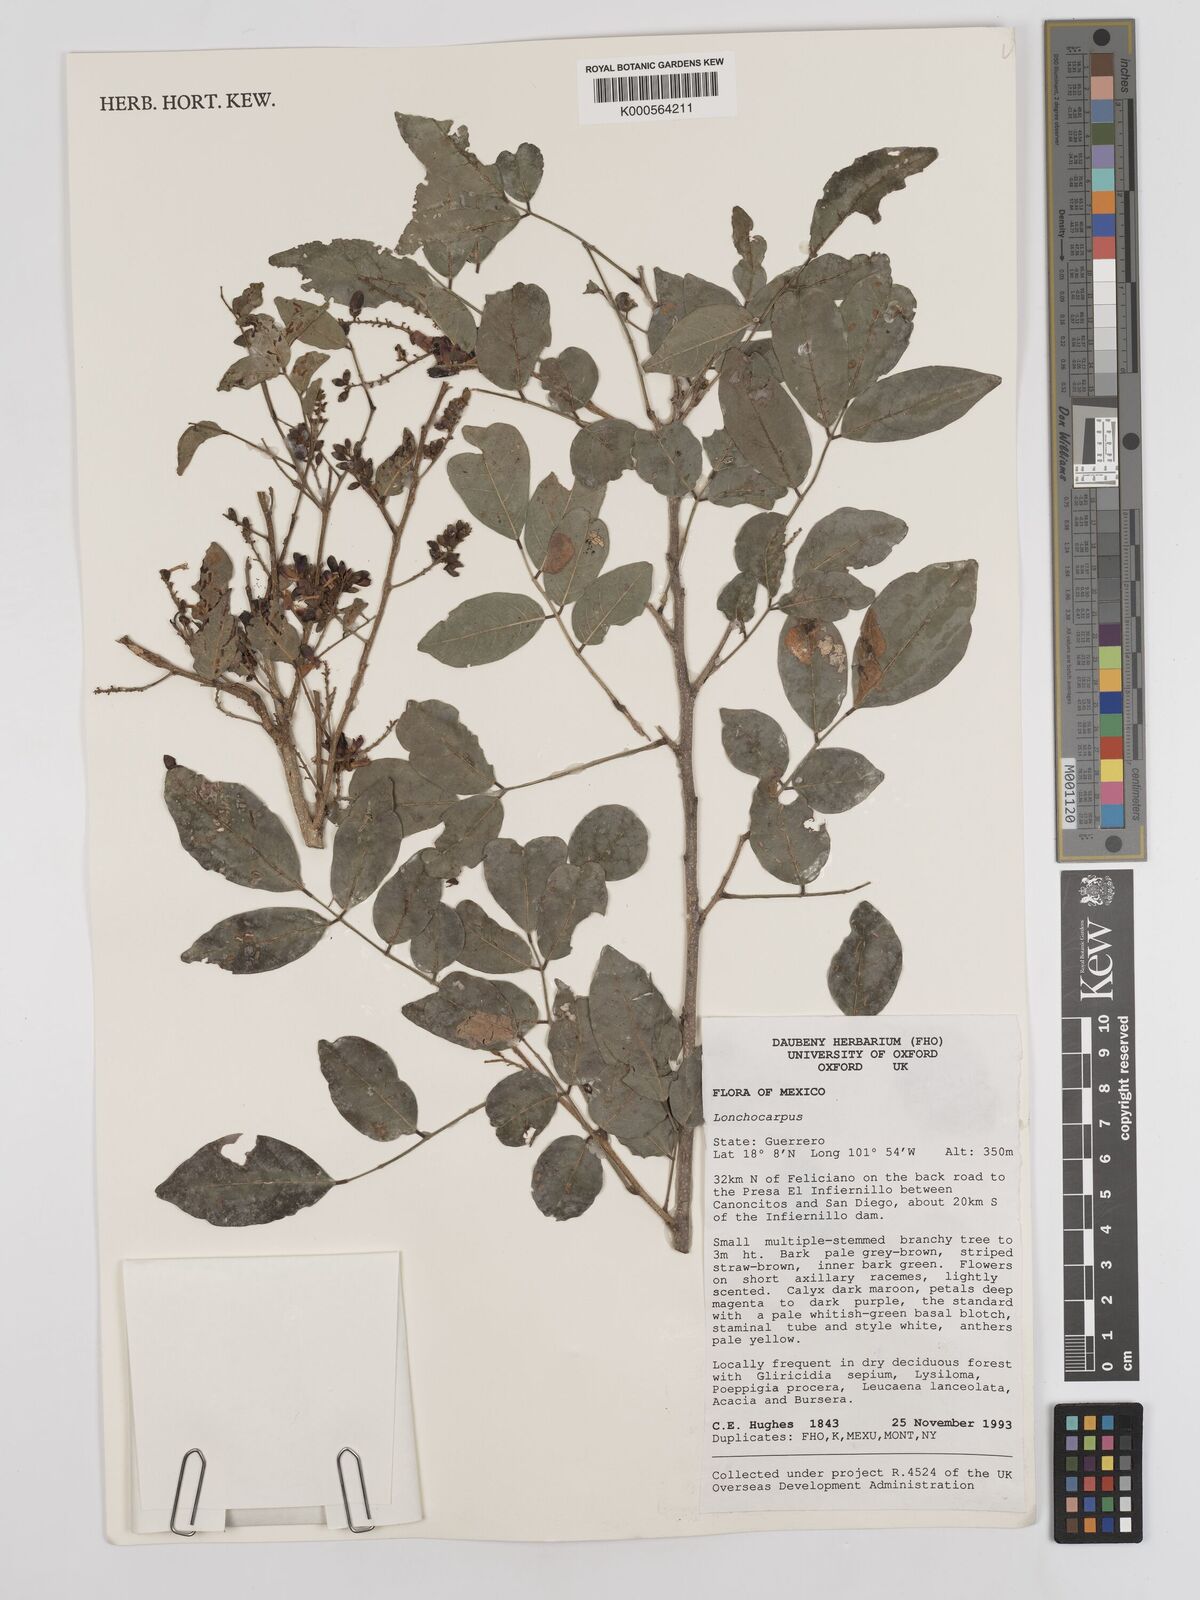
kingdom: Plantae
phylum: Tracheophyta
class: Magnoliopsida
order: Fabales
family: Fabaceae
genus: Lonchocarpus
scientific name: Lonchocarpus
